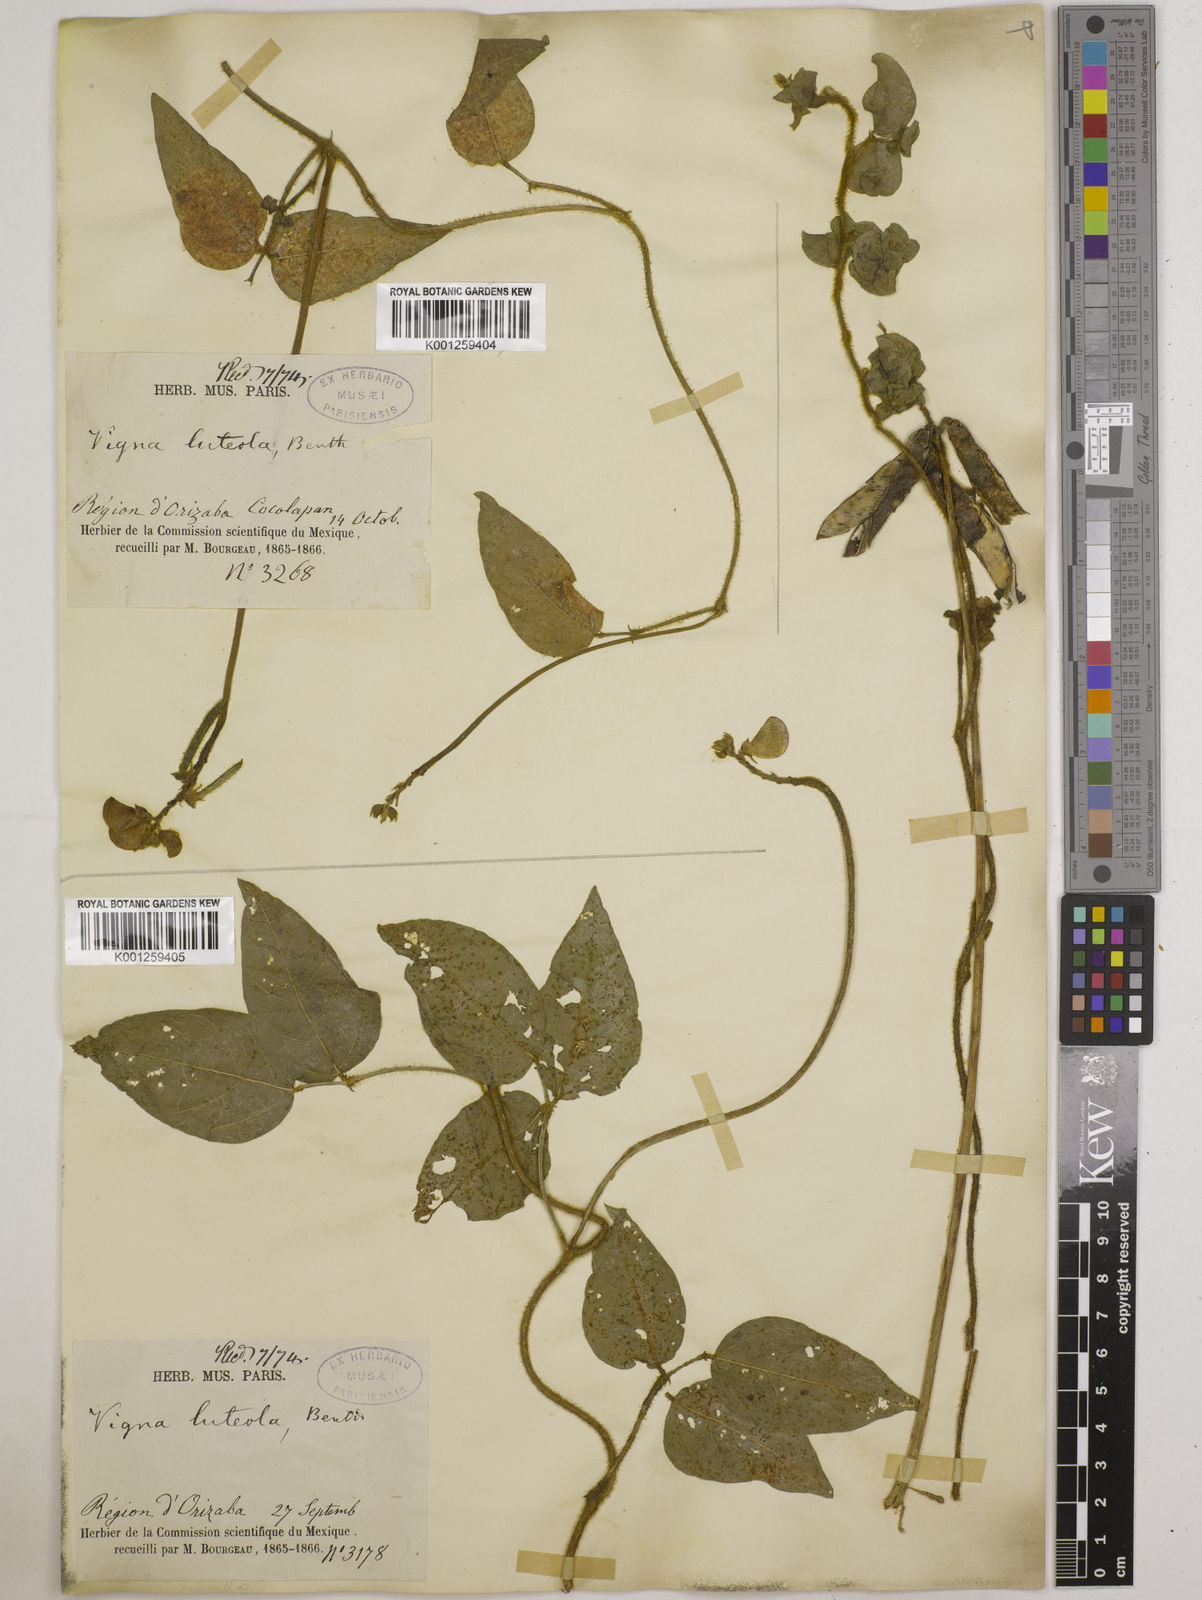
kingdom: Plantae
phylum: Tracheophyta
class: Magnoliopsida
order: Fabales
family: Fabaceae
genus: Vigna
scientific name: Vigna luteola
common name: Hairypod cowpea
